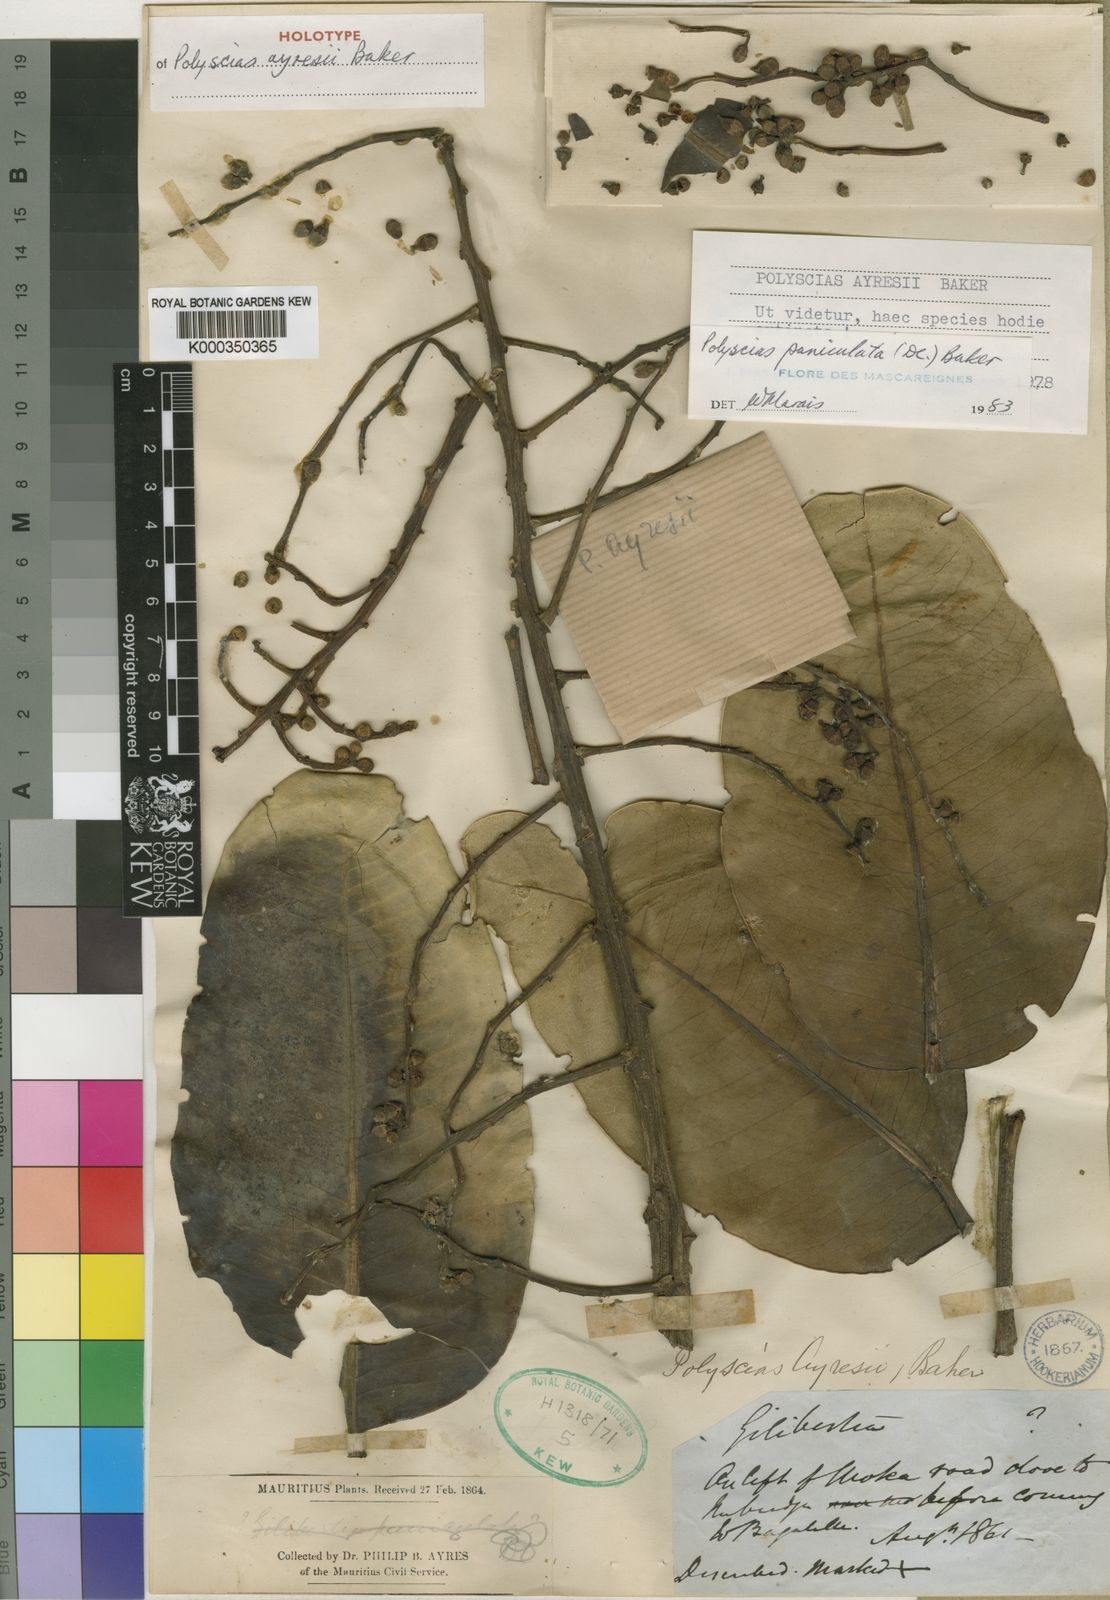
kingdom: Plantae
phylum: Tracheophyta
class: Magnoliopsida
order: Apiales
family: Araliaceae
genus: Polyscias
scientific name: Polyscias paniculata
